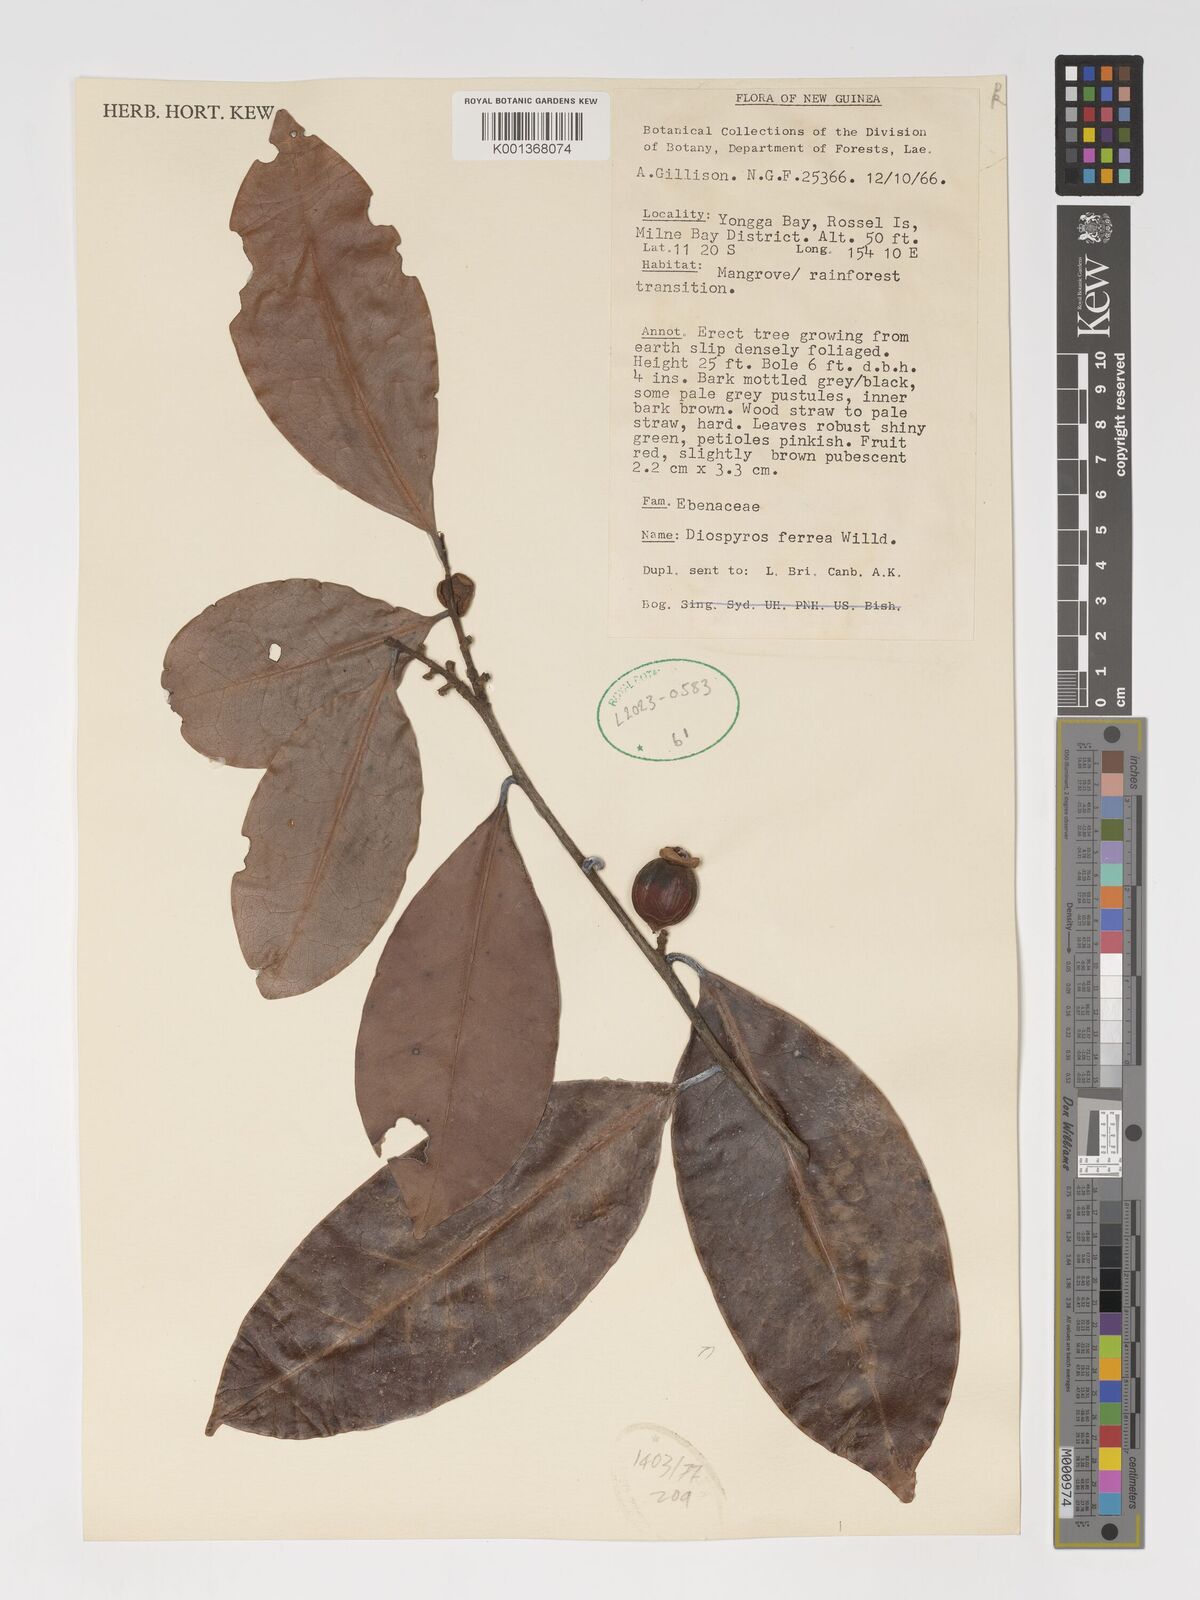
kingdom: Plantae
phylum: Tracheophyta
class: Magnoliopsida
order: Ericales
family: Ebenaceae
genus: Diospyros
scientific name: Diospyros ferrea
